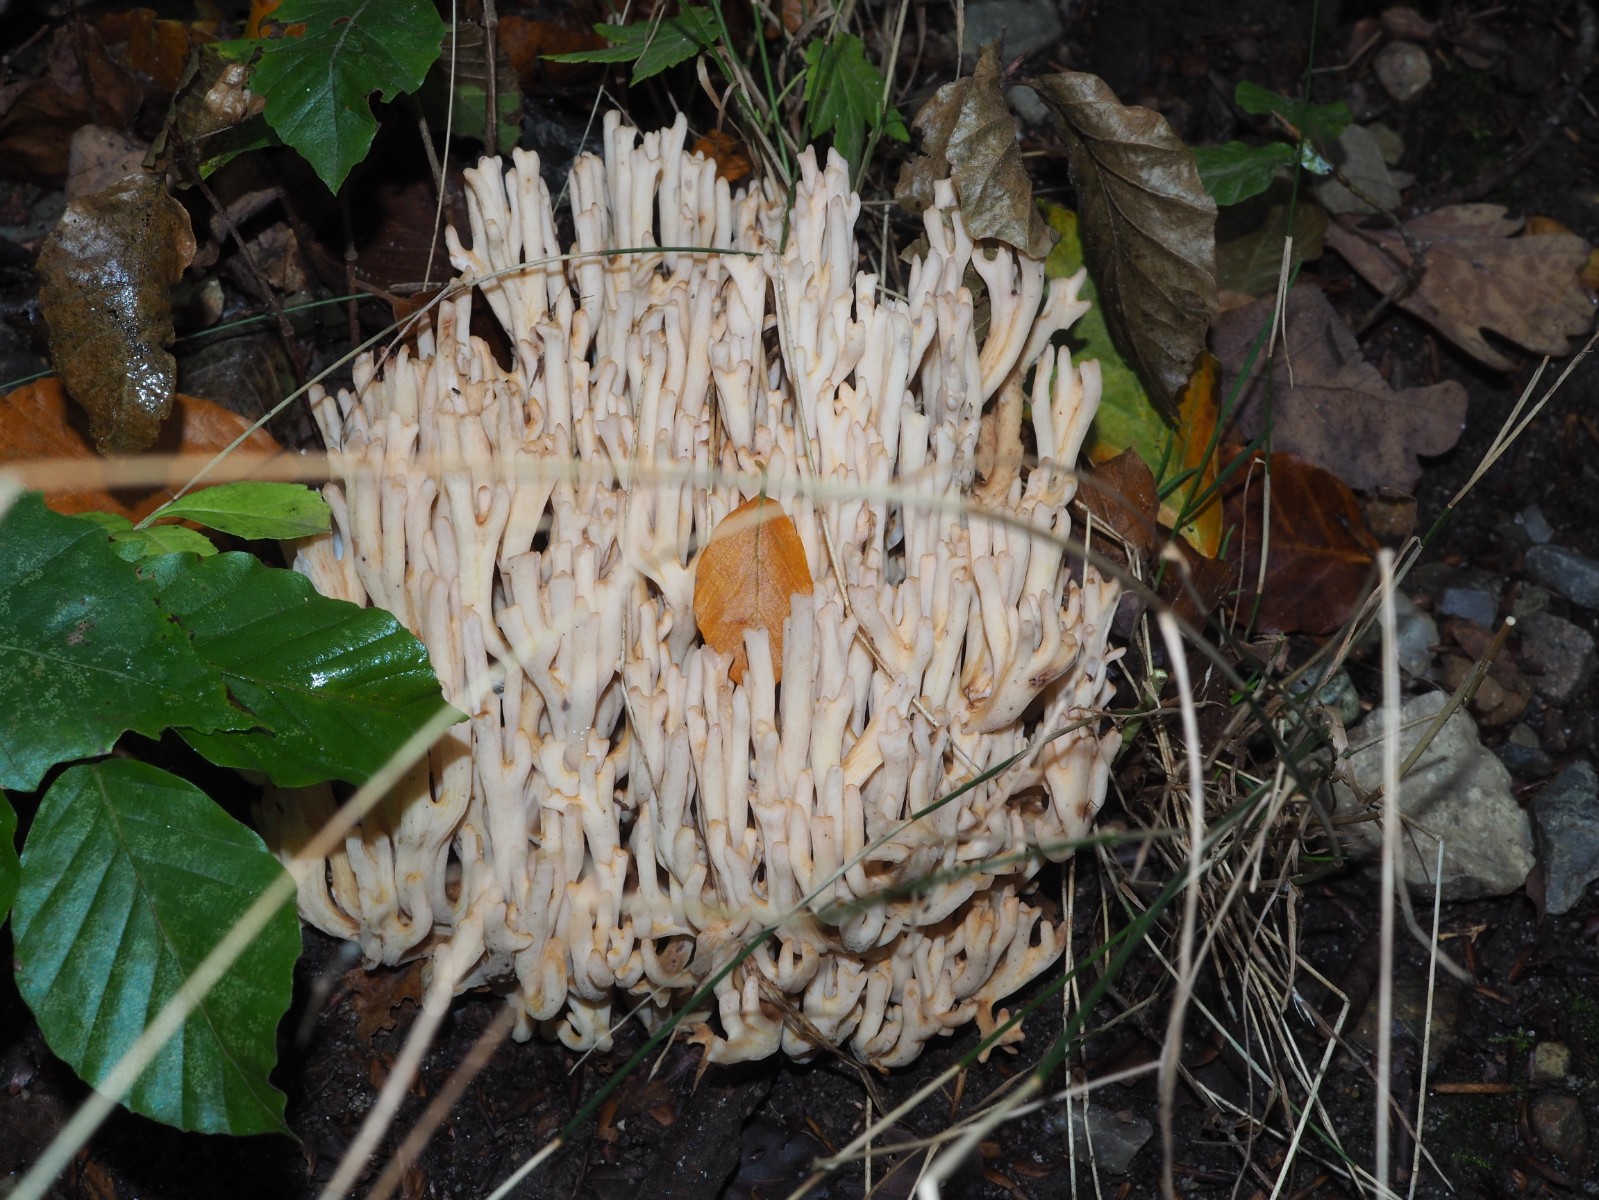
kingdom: Fungi
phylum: Basidiomycota
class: Agaricomycetes
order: Gomphales
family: Gomphaceae
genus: Ramaria
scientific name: Ramaria botrytis
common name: drue-koralsvamp
